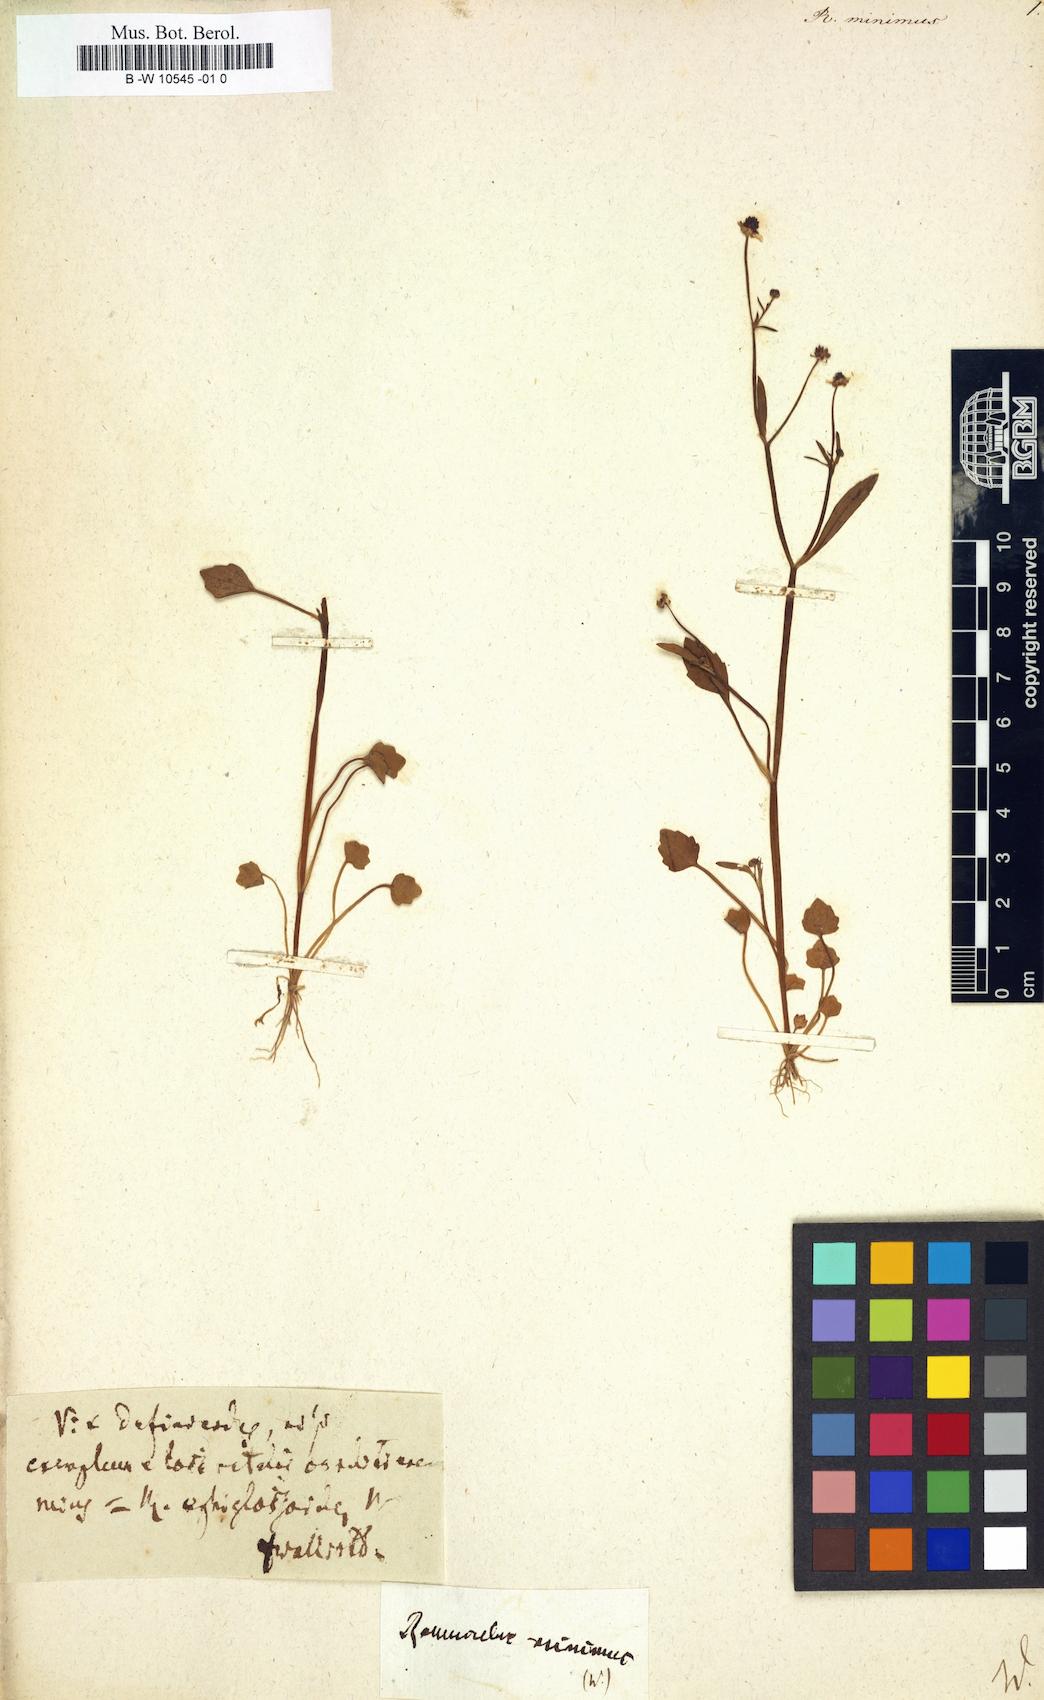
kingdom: Plantae
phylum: Tracheophyta
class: Magnoliopsida
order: Ranunculales
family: Ranunculaceae
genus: Ranunculus
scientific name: Ranunculus ophioglossifolius
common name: Adder's-tongue spearwort
